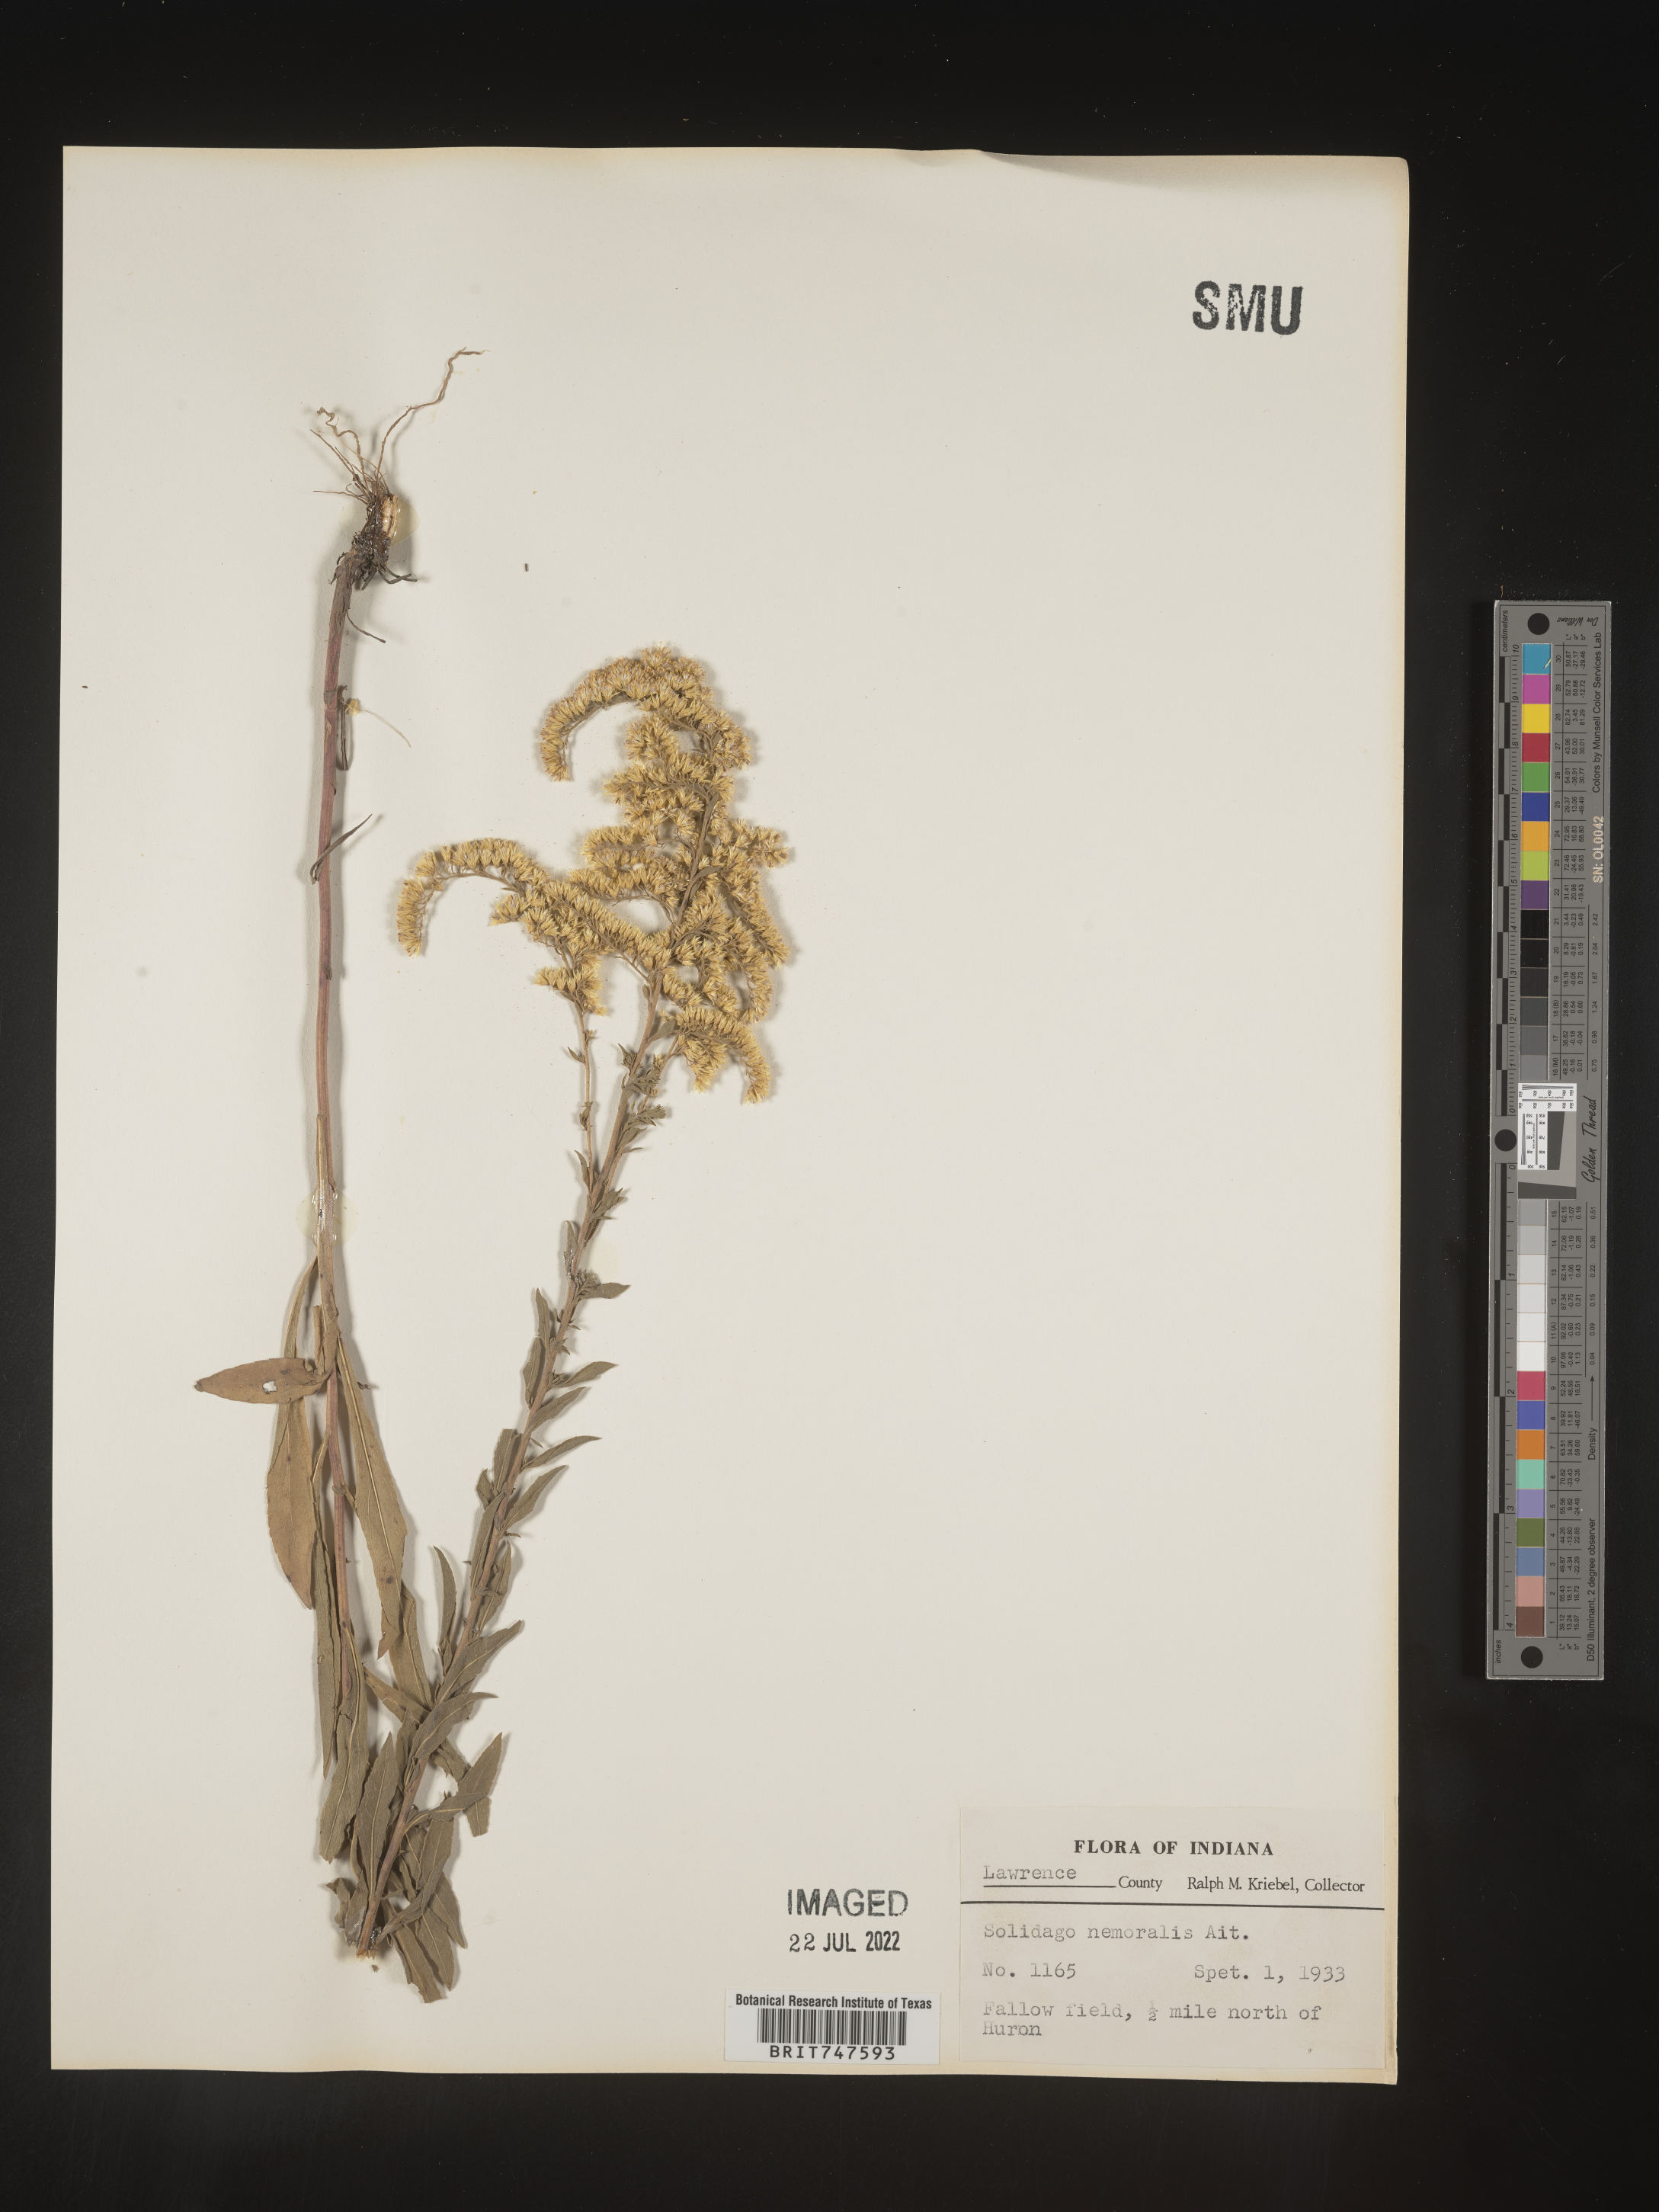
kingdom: Plantae
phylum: Tracheophyta
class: Magnoliopsida
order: Asterales
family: Asteraceae
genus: Solidago
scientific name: Solidago nemoralis
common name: Grey goldenrod
